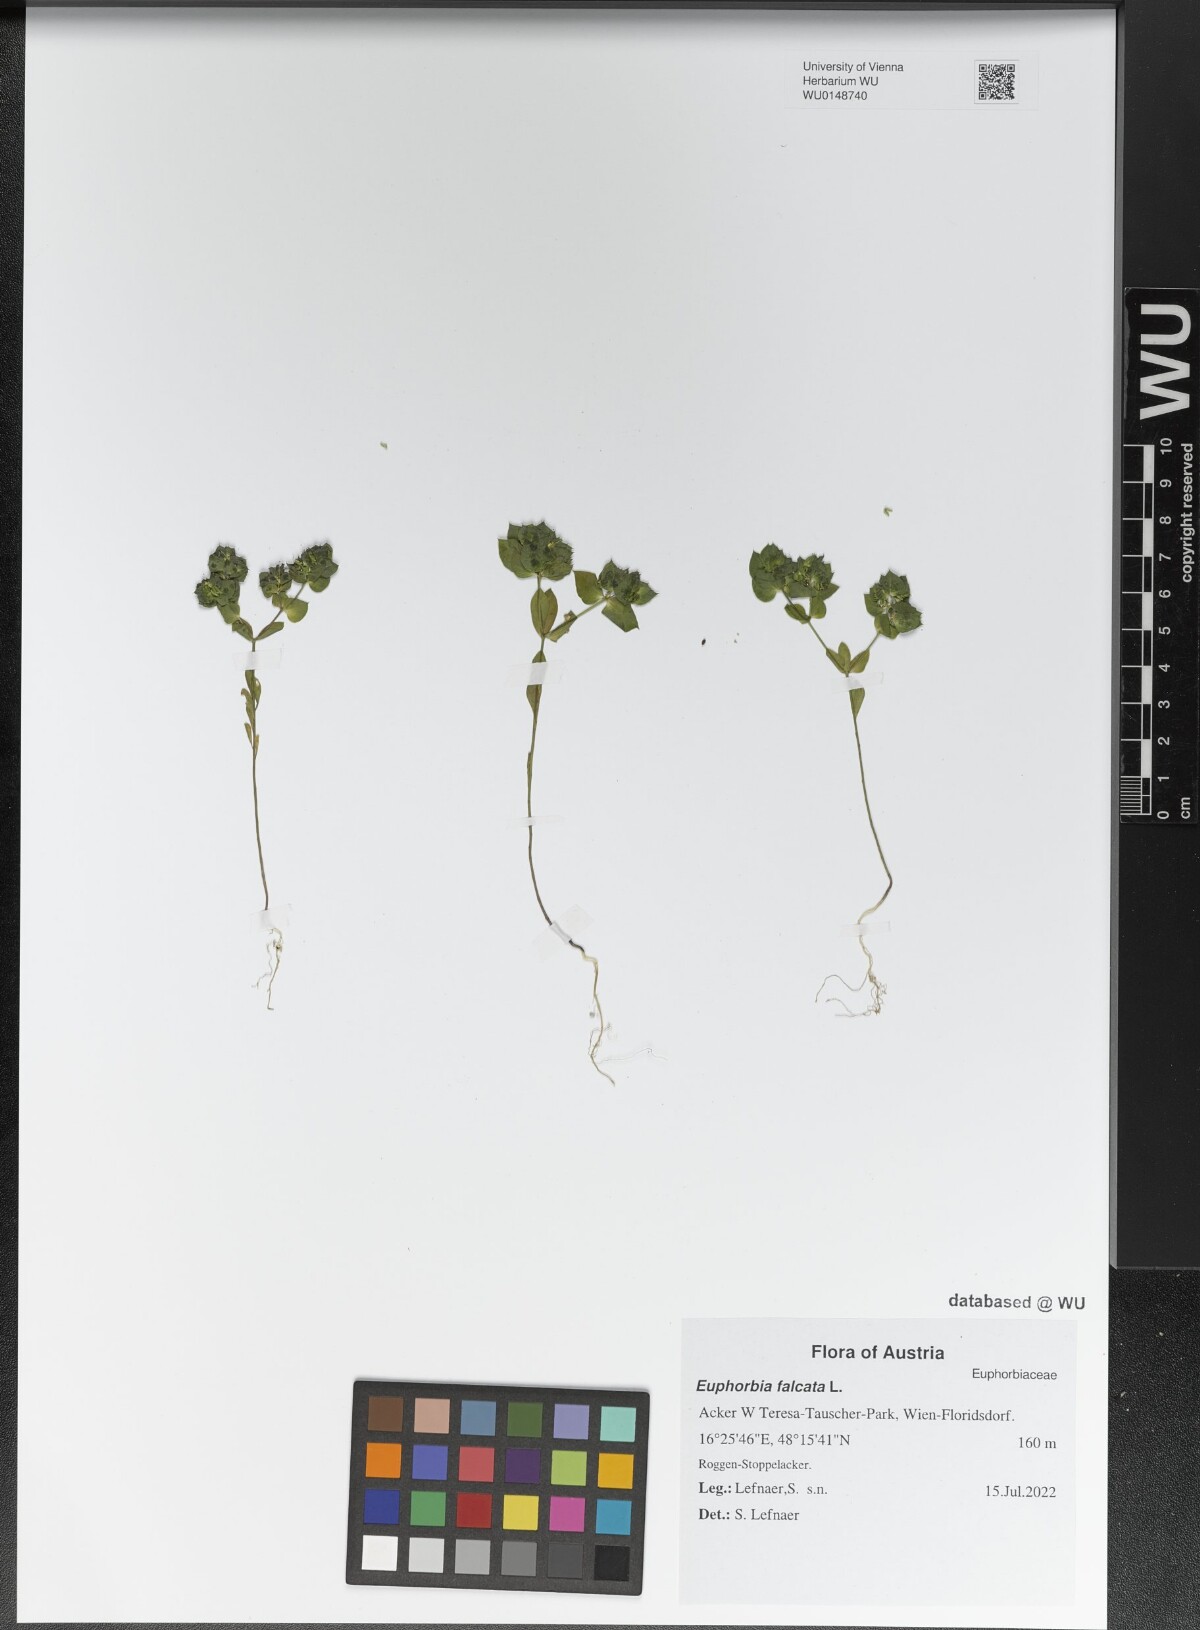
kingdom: Plantae
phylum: Tracheophyta
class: Magnoliopsida
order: Malpighiales
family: Euphorbiaceae
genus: Euphorbia
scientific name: Euphorbia falcata
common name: Sickle spurge
